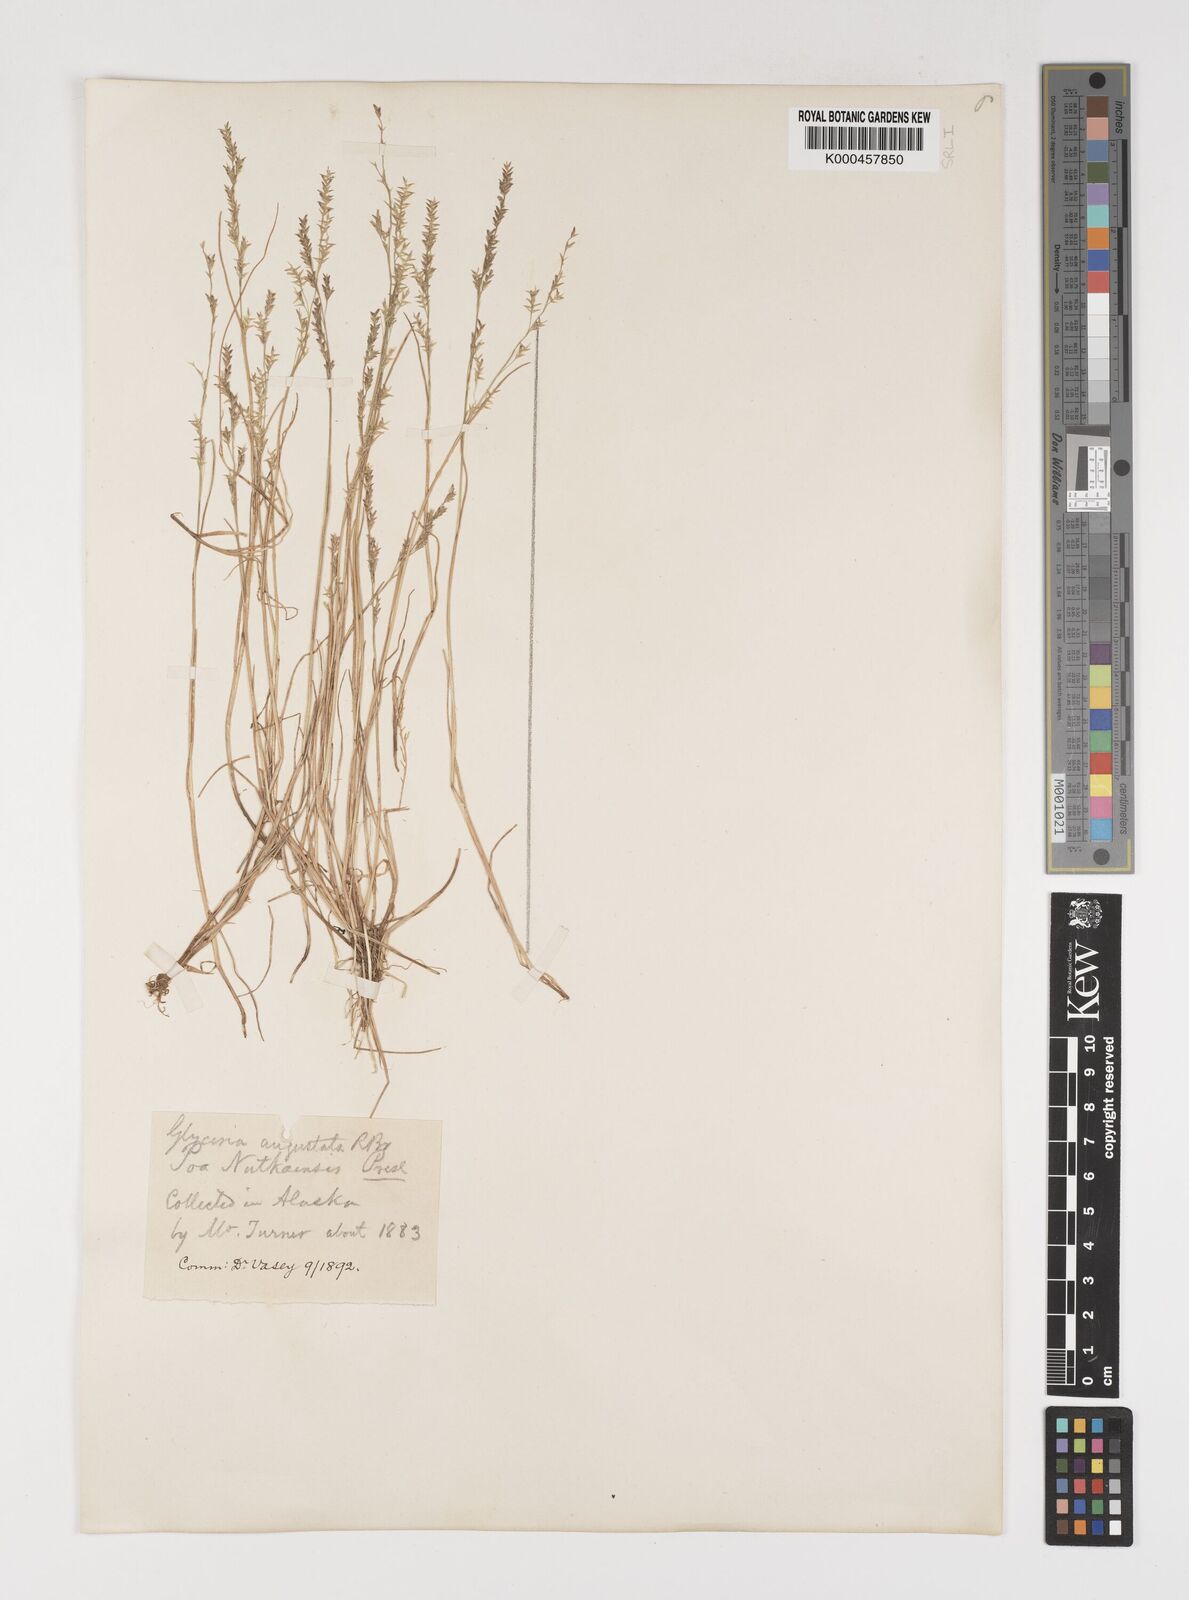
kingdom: Plantae
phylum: Tracheophyta
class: Liliopsida
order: Poales
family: Poaceae
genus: Puccinellia
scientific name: Puccinellia angustata
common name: Narrow alkaligrass
